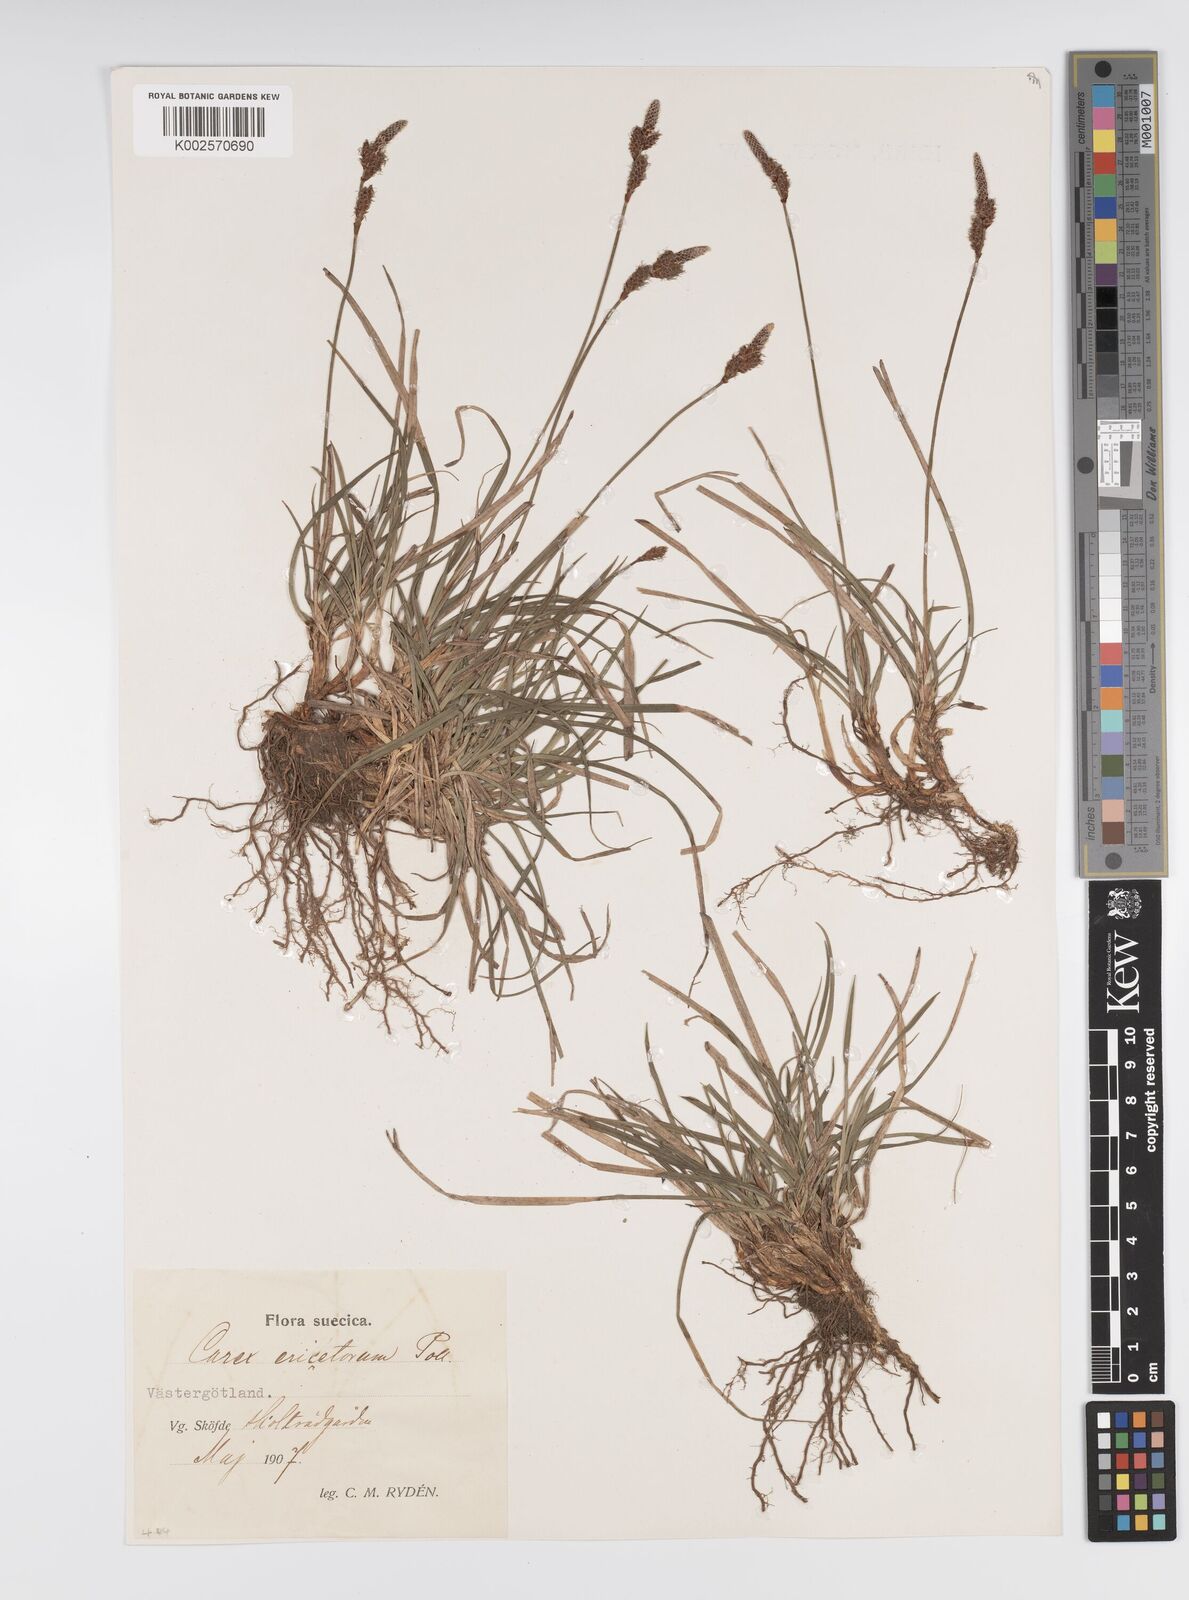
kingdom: Plantae
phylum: Tracheophyta
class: Liliopsida
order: Poales
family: Cyperaceae
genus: Carex
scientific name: Carex ericetorum
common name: Rare spring-sedge
